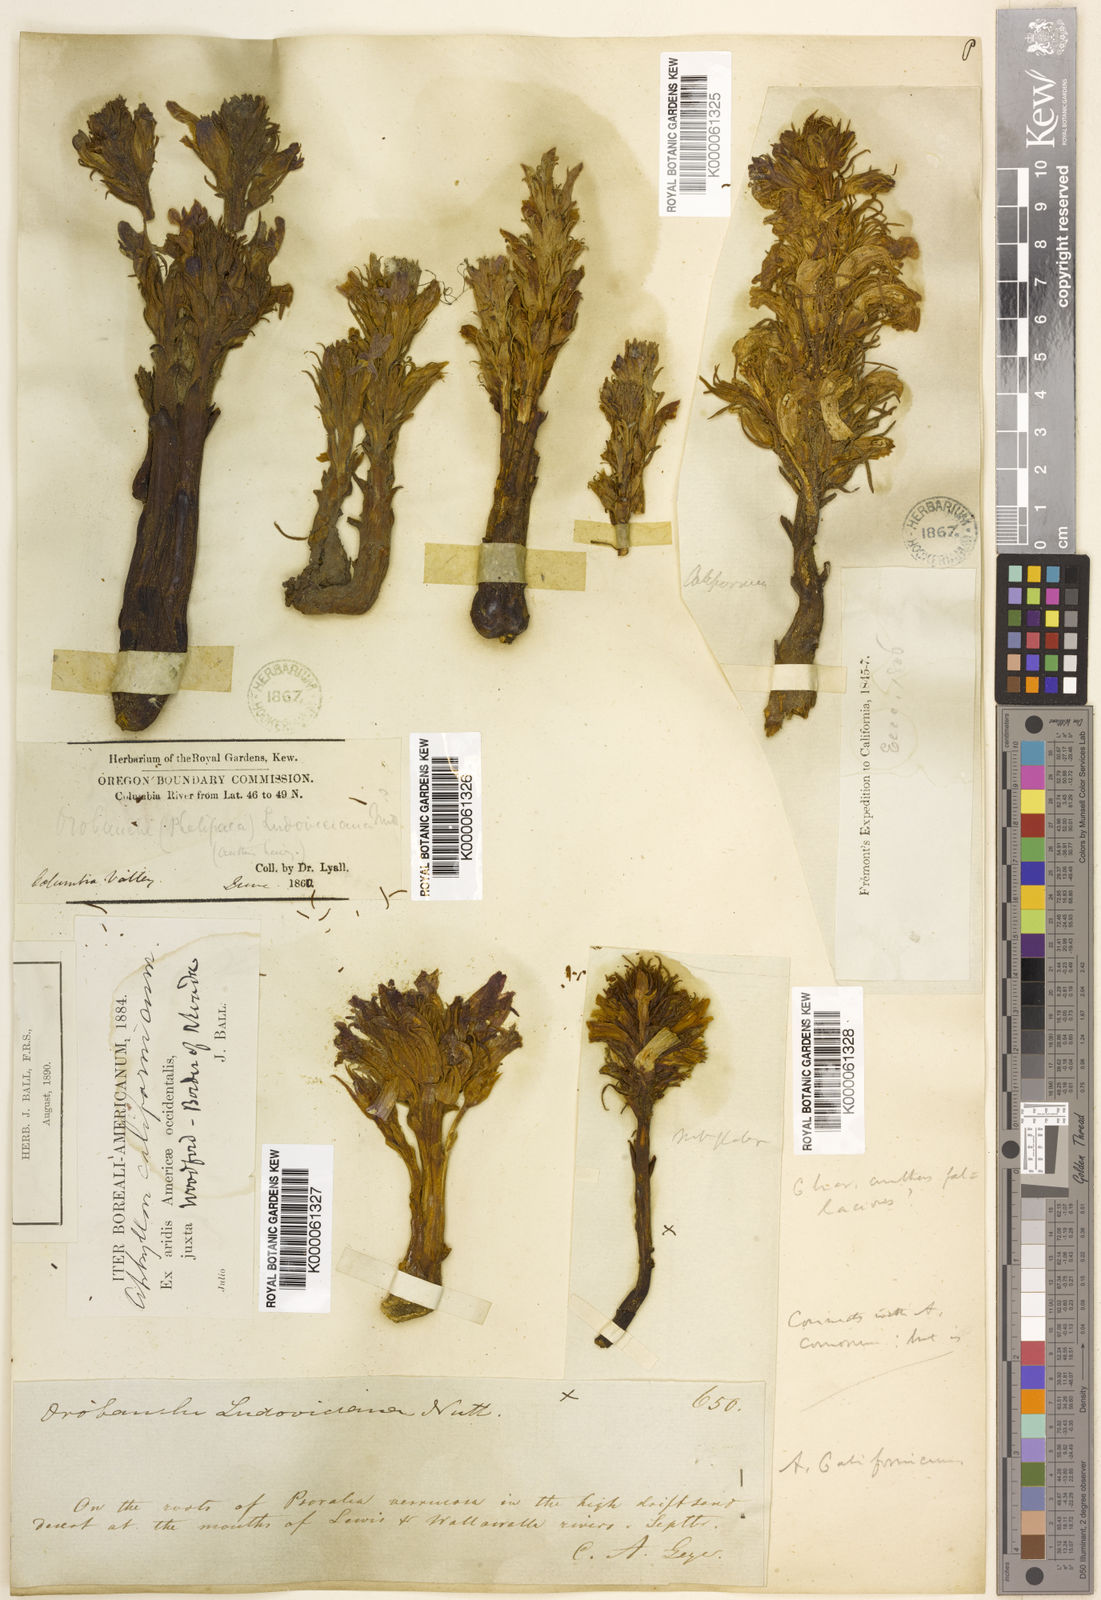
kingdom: Plantae
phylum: Tracheophyta
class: Magnoliopsida
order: Lamiales
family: Orobanchaceae
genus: Aphyllon
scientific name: Aphyllon californicum
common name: California broomrape
